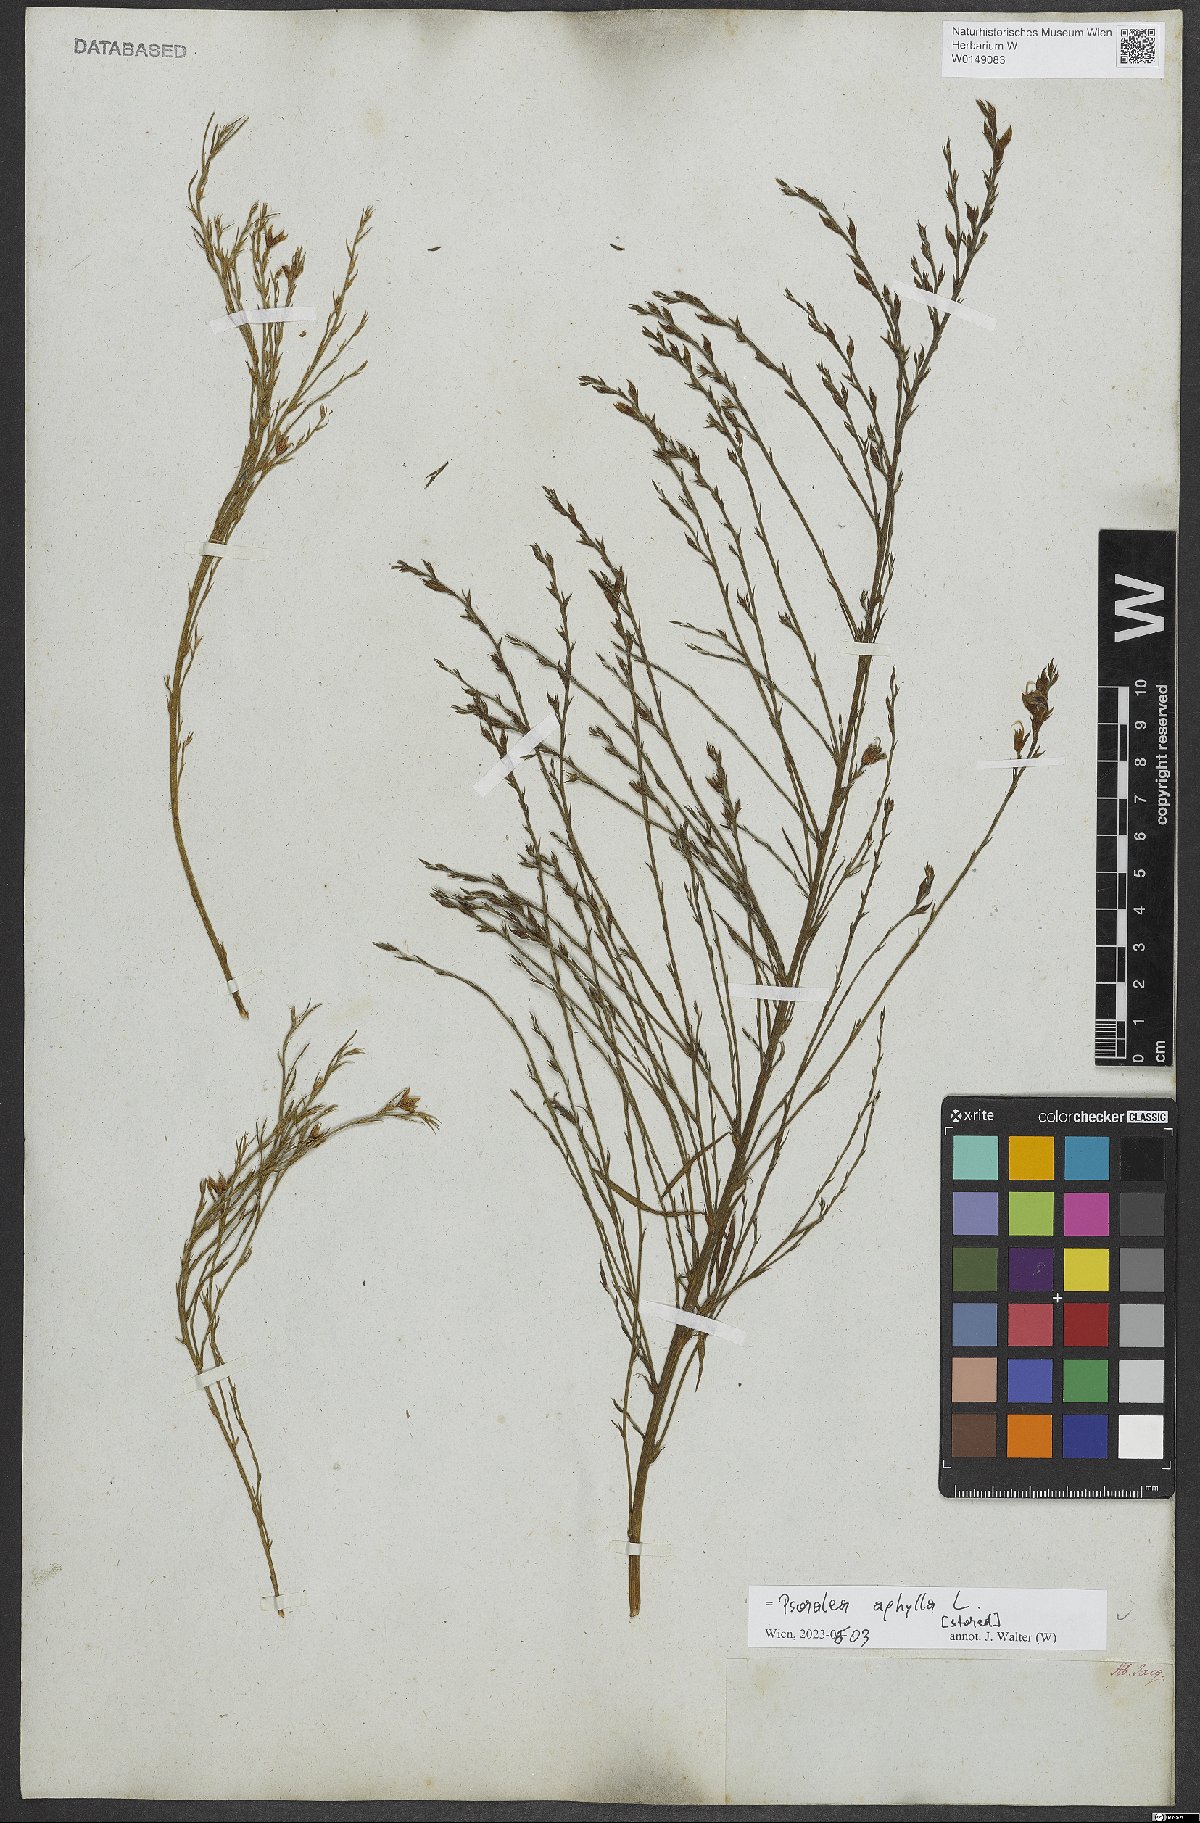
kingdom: Plantae
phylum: Tracheophyta
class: Magnoliopsida
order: Fabales
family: Fabaceae
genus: Psoralea
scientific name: Psoralea aphylla
